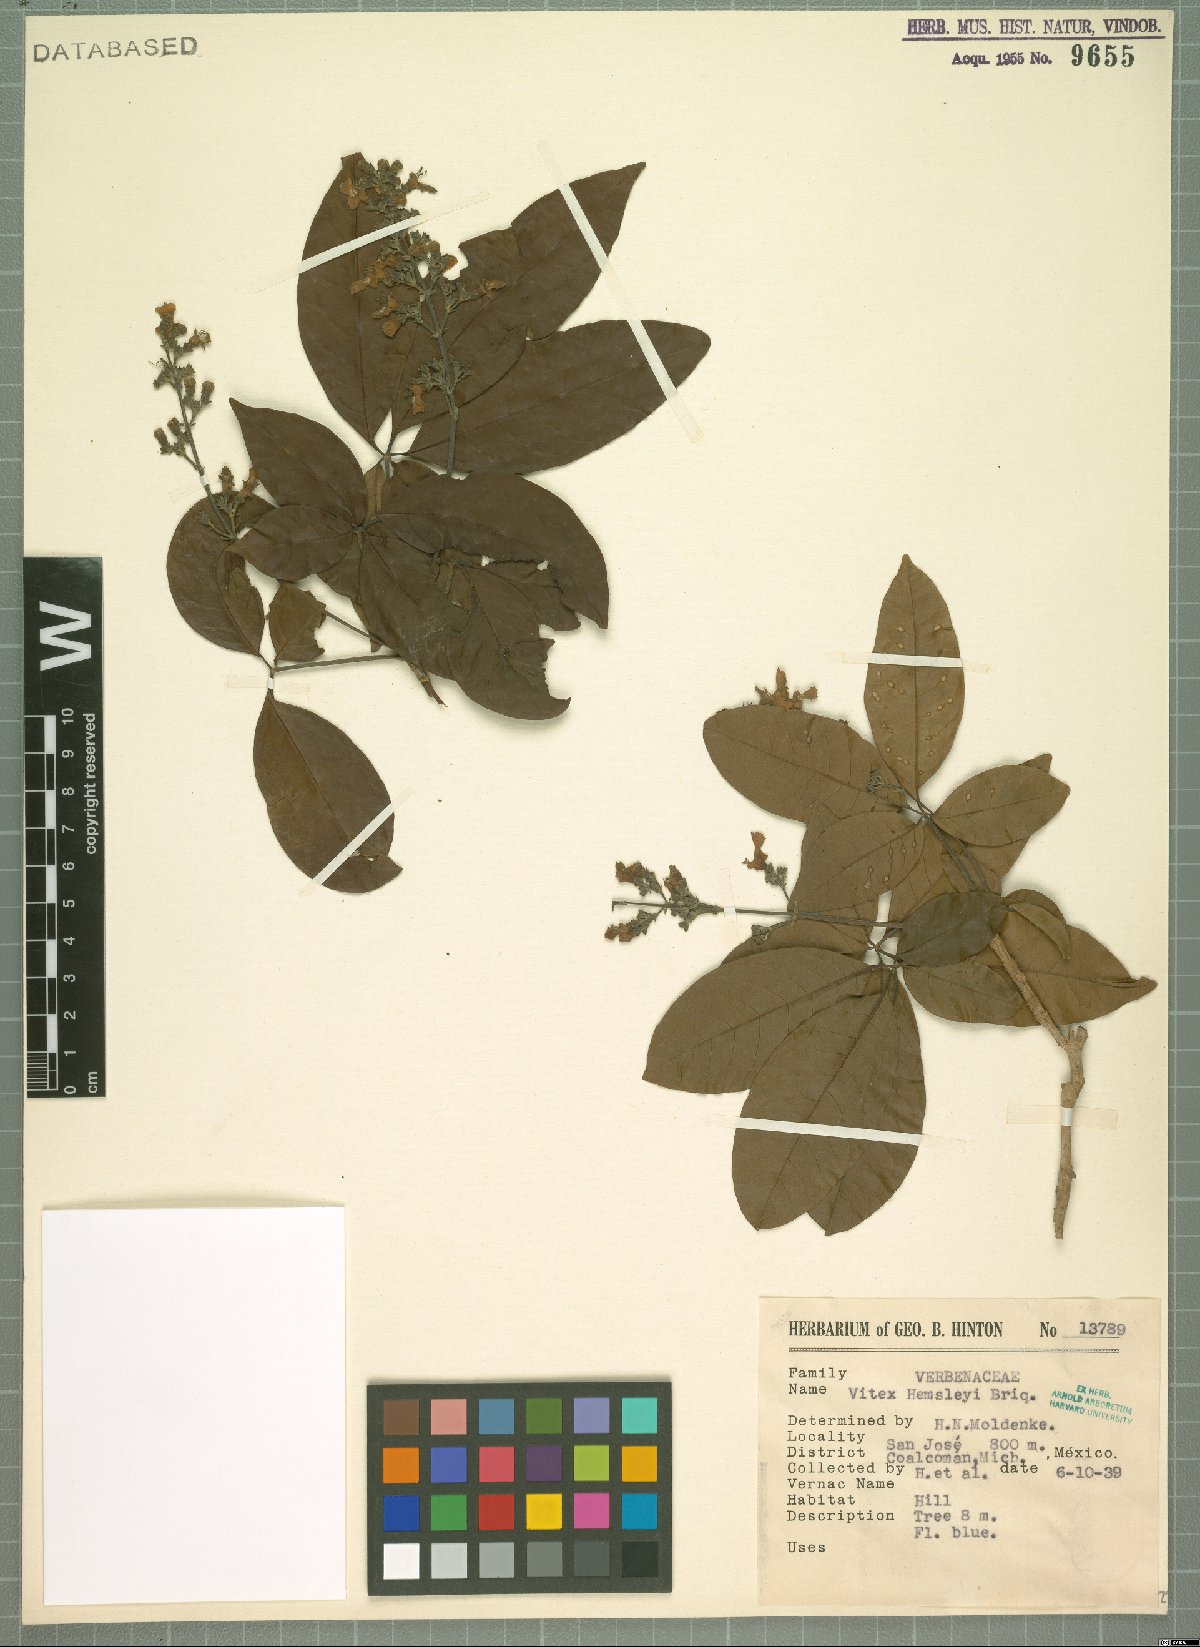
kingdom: Plantae
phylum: Tracheophyta
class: Magnoliopsida
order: Lamiales
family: Lamiaceae
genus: Vitex
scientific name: Vitex hemsleyi
